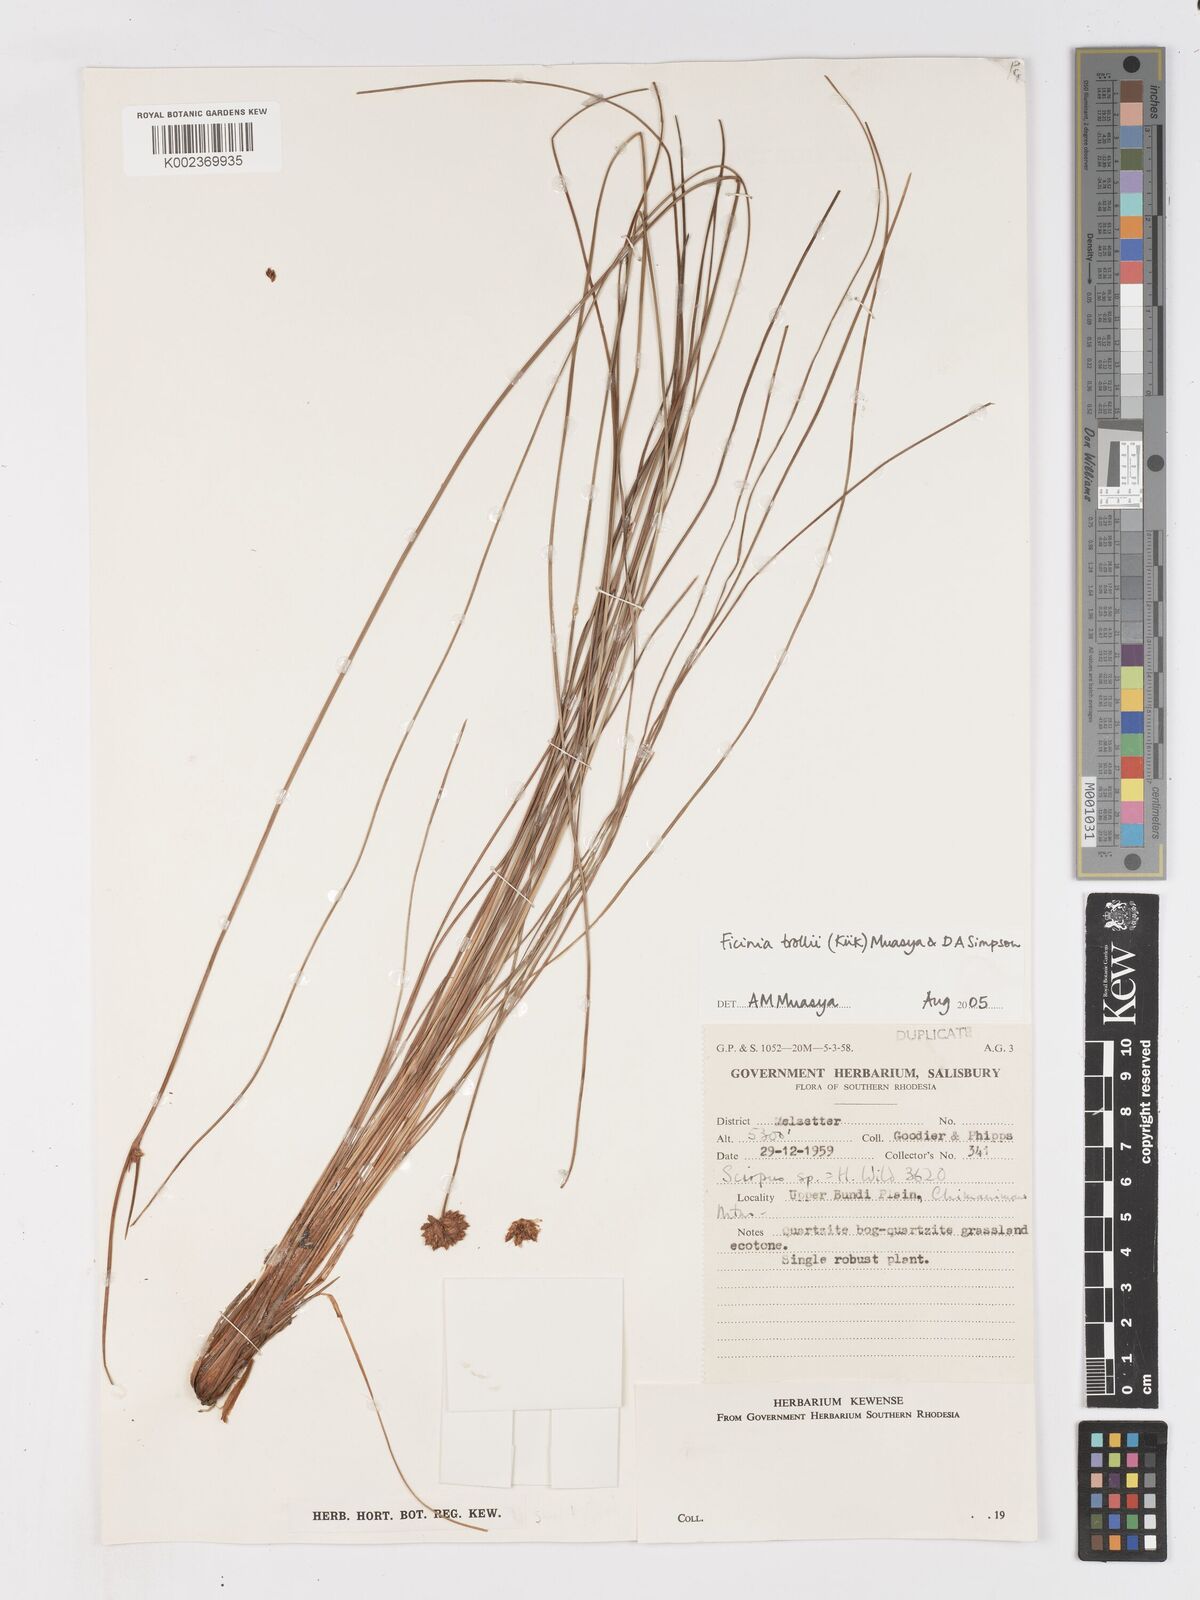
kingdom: Plantae
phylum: Tracheophyta
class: Liliopsida
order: Poales
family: Cyperaceae
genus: Ficinia
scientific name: Ficinia trollii
